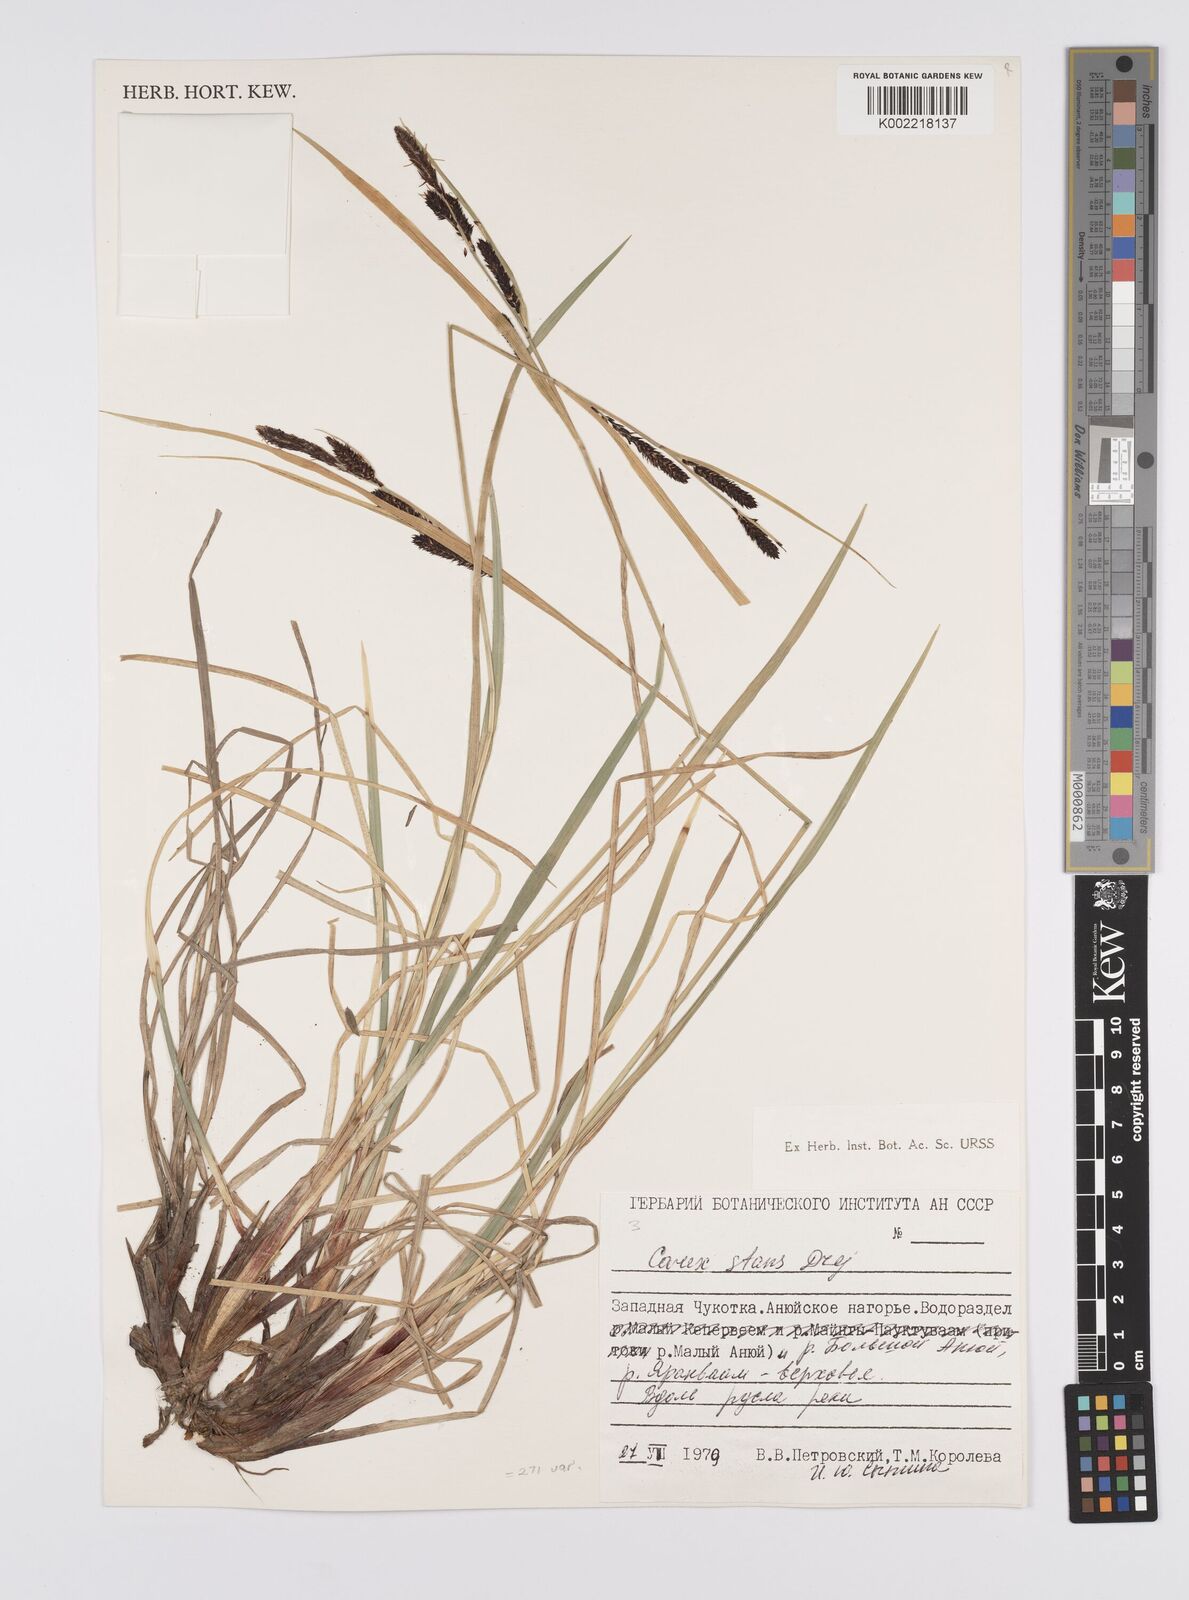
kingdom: Plantae
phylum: Tracheophyta
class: Liliopsida
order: Poales
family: Cyperaceae
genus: Carex
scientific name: Carex aquatilis
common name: Water sedge
